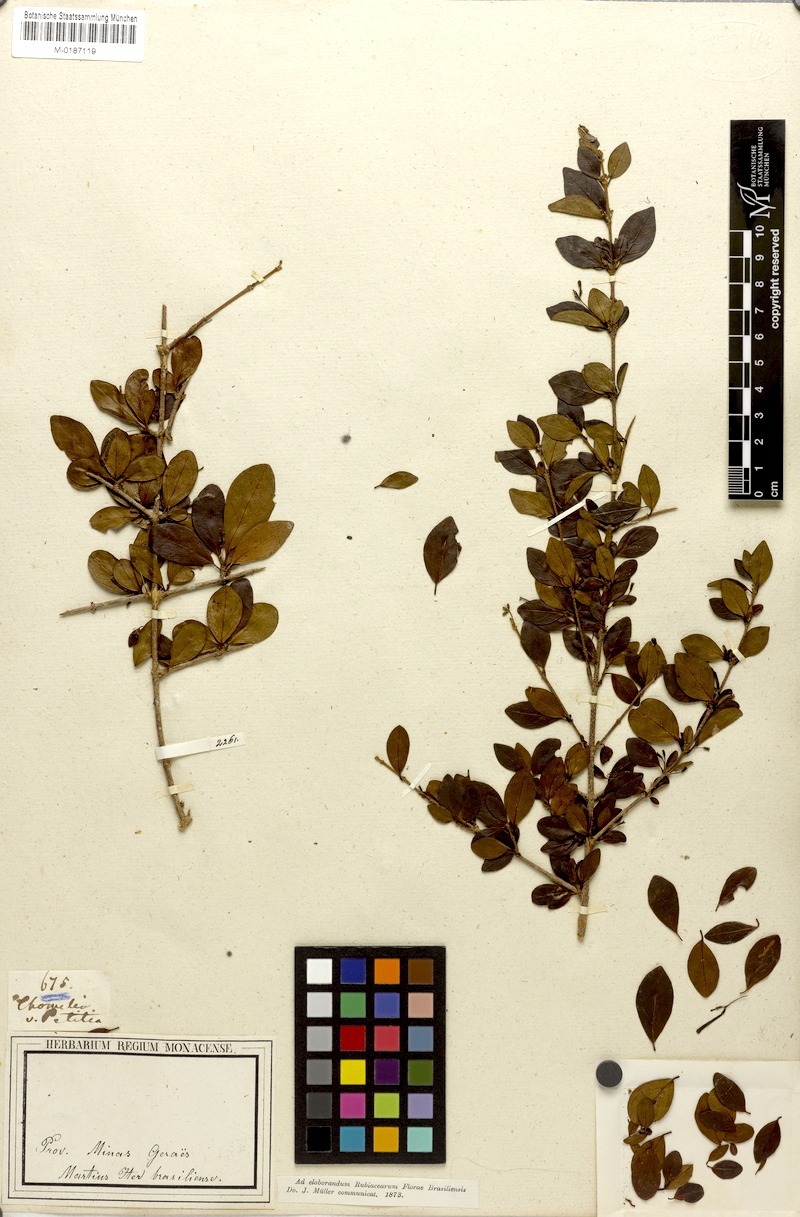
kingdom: Plantae
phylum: Tracheophyta
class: Magnoliopsida
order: Gentianales
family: Rubiaceae
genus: Chomelia
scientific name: Chomelia obtusa
